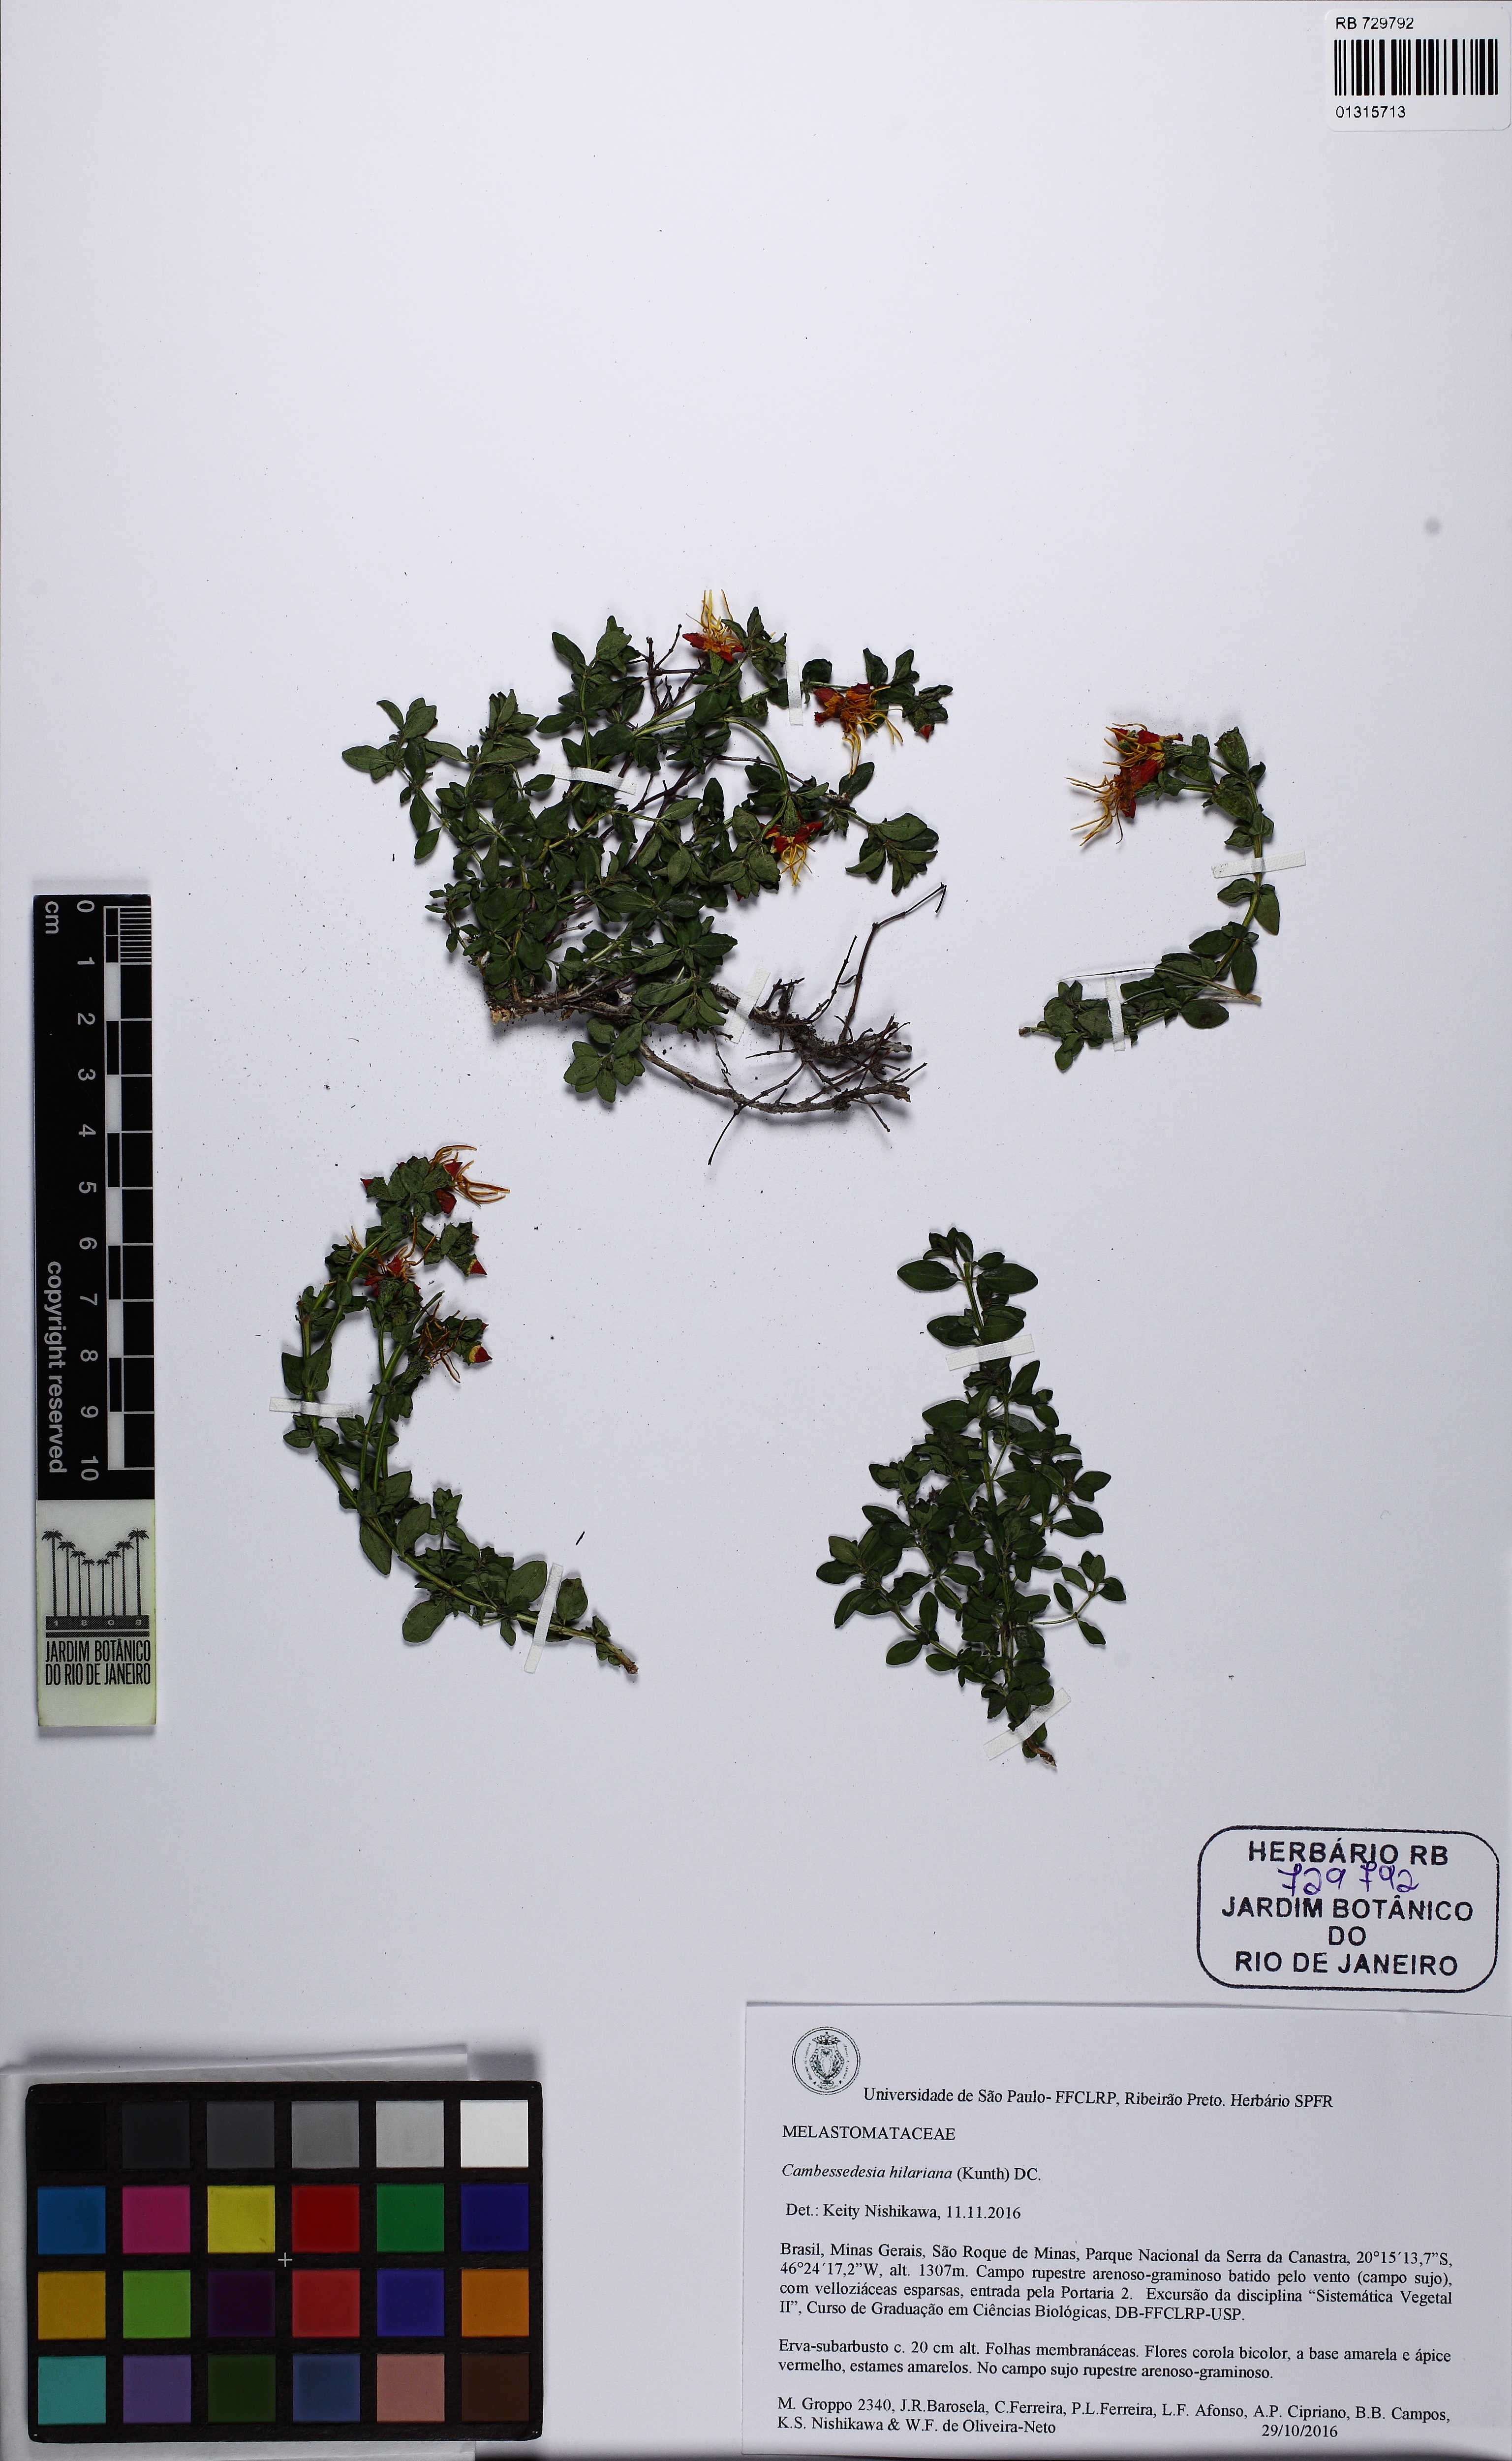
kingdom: Plantae
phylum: Tracheophyta
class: Magnoliopsida
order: Myrtales
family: Melastomataceae
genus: Cambessedesia
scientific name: Cambessedesia hilariana
